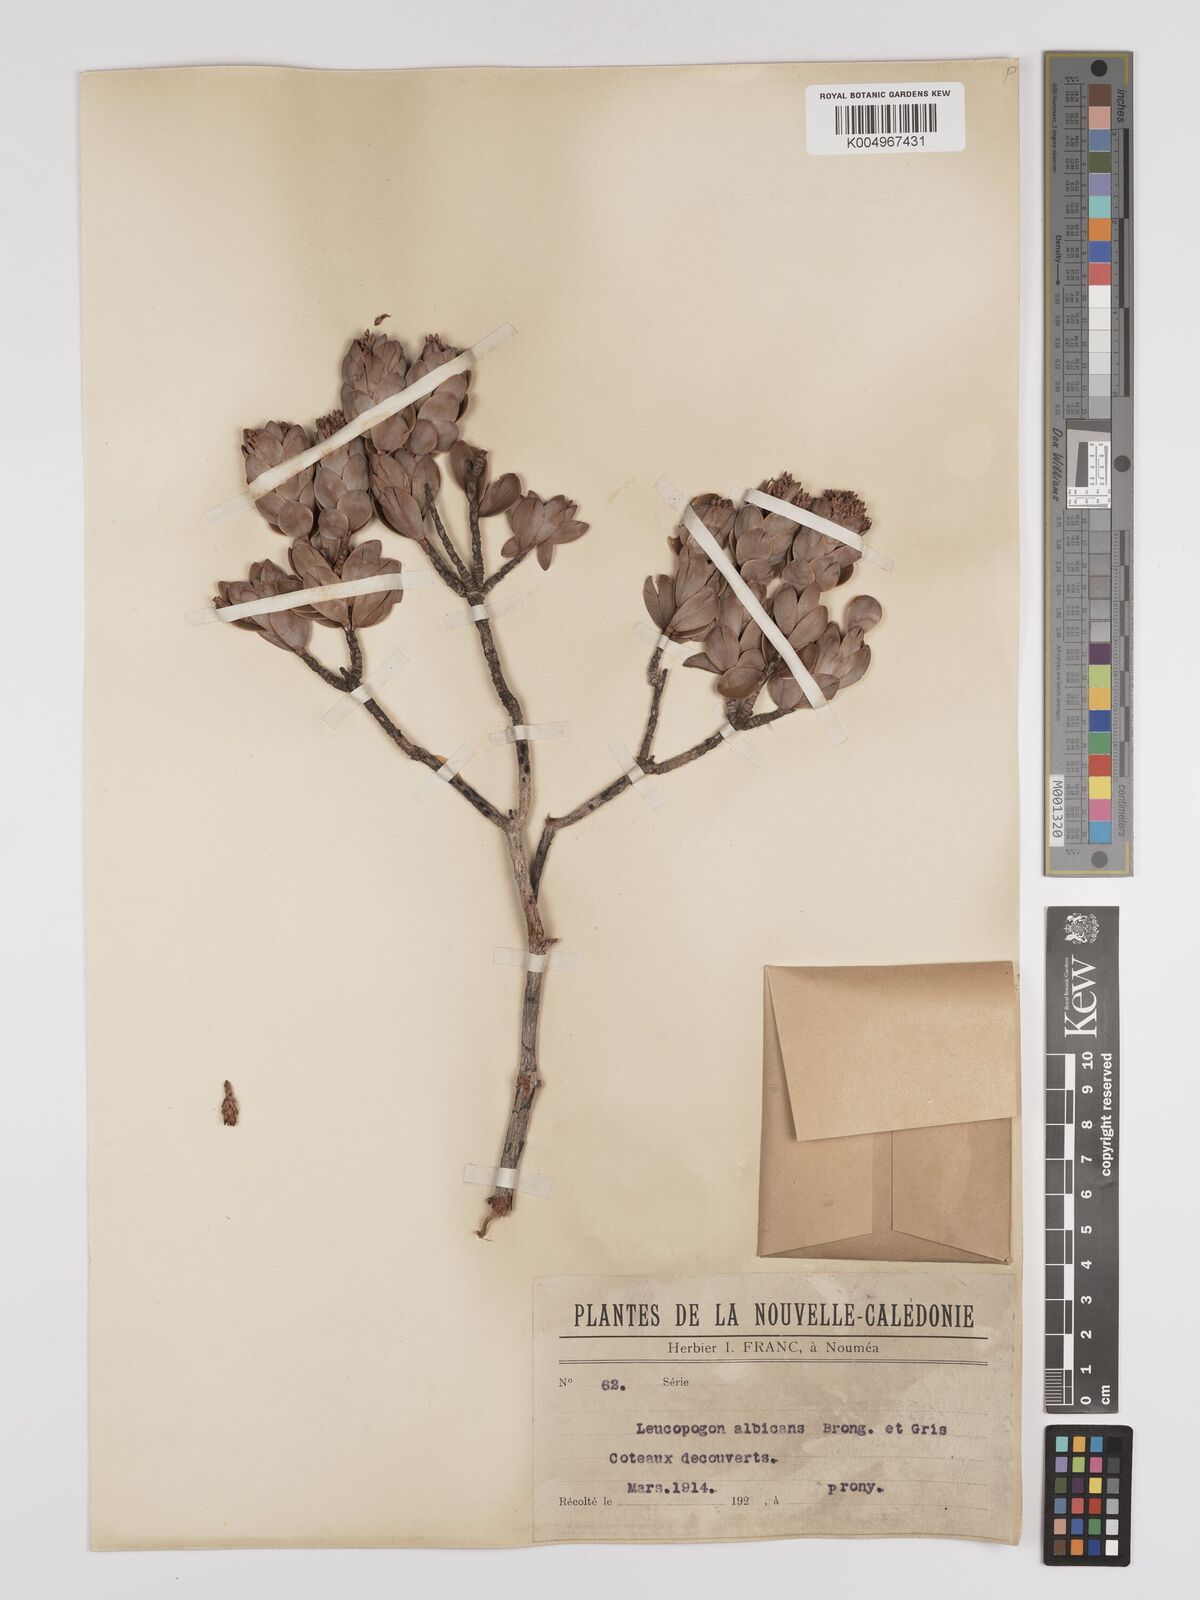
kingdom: Plantae
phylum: Tracheophyta
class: Magnoliopsida
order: Ericales
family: Ericaceae
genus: Cyathopsis
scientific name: Cyathopsis albicans
